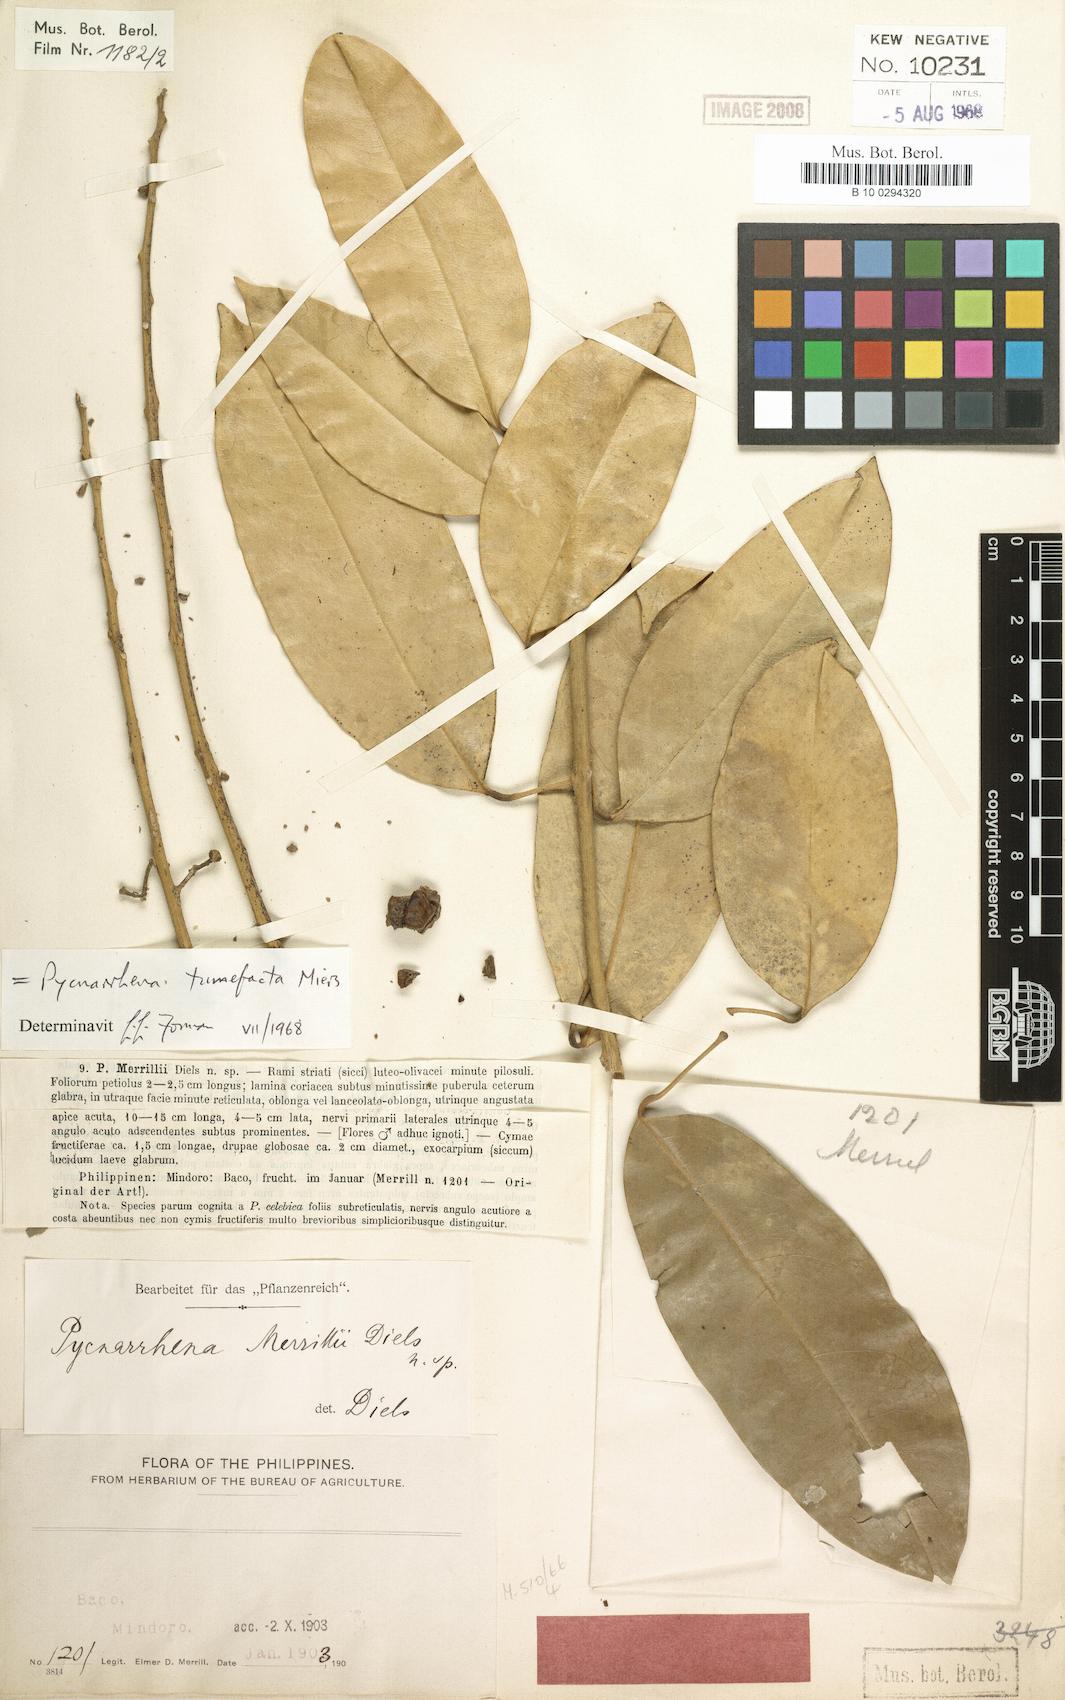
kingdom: Plantae
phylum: Tracheophyta
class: Magnoliopsida
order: Ranunculales
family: Menispermaceae
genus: Pycnarrhena
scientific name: Pycnarrhena tumefacta
